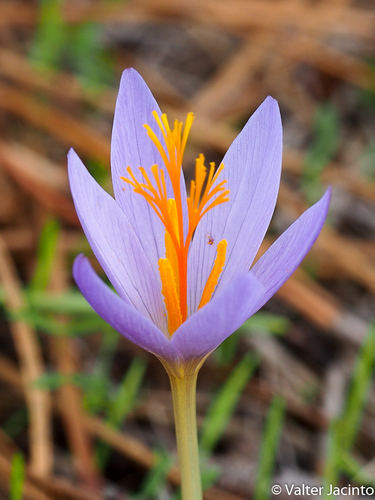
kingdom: Plantae
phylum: Tracheophyta
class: Liliopsida
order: Asparagales
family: Iridaceae
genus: Crocus
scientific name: Crocus serotinus
